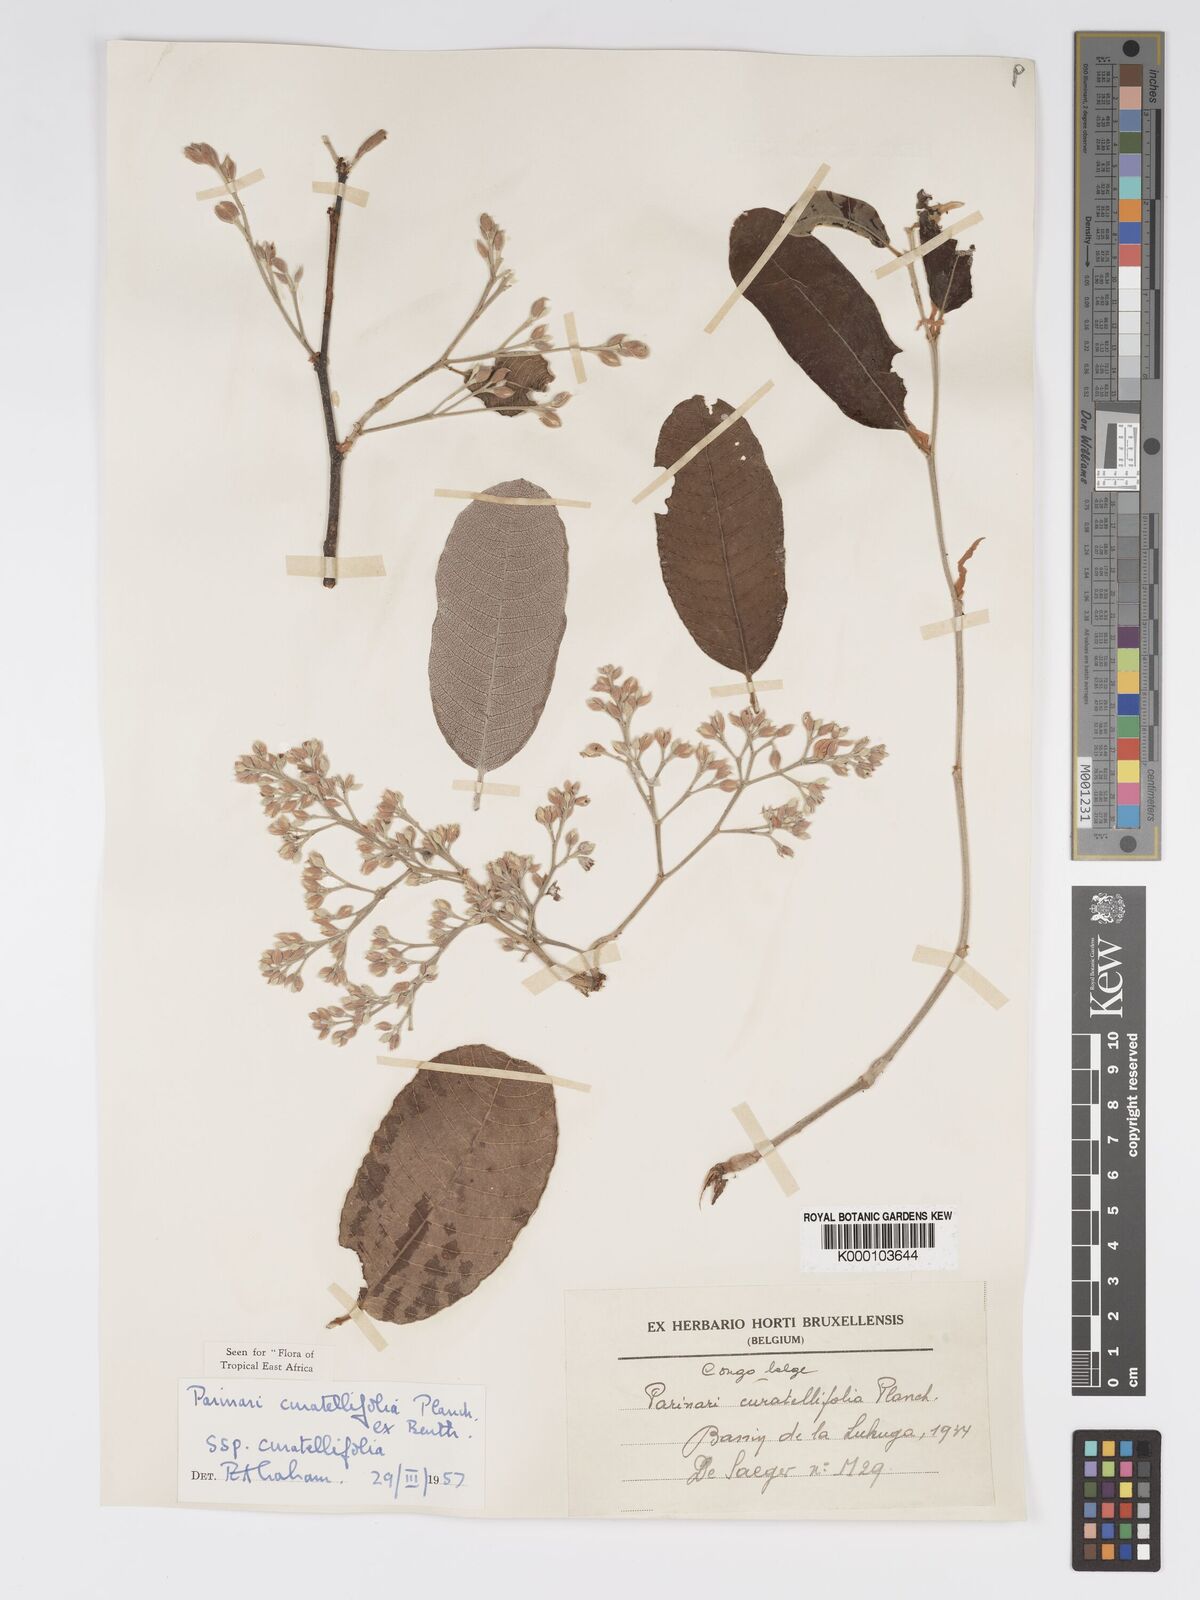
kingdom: Plantae
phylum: Tracheophyta
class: Magnoliopsida
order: Malpighiales
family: Chrysobalanaceae
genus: Parinari
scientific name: Parinari curatellifolia
